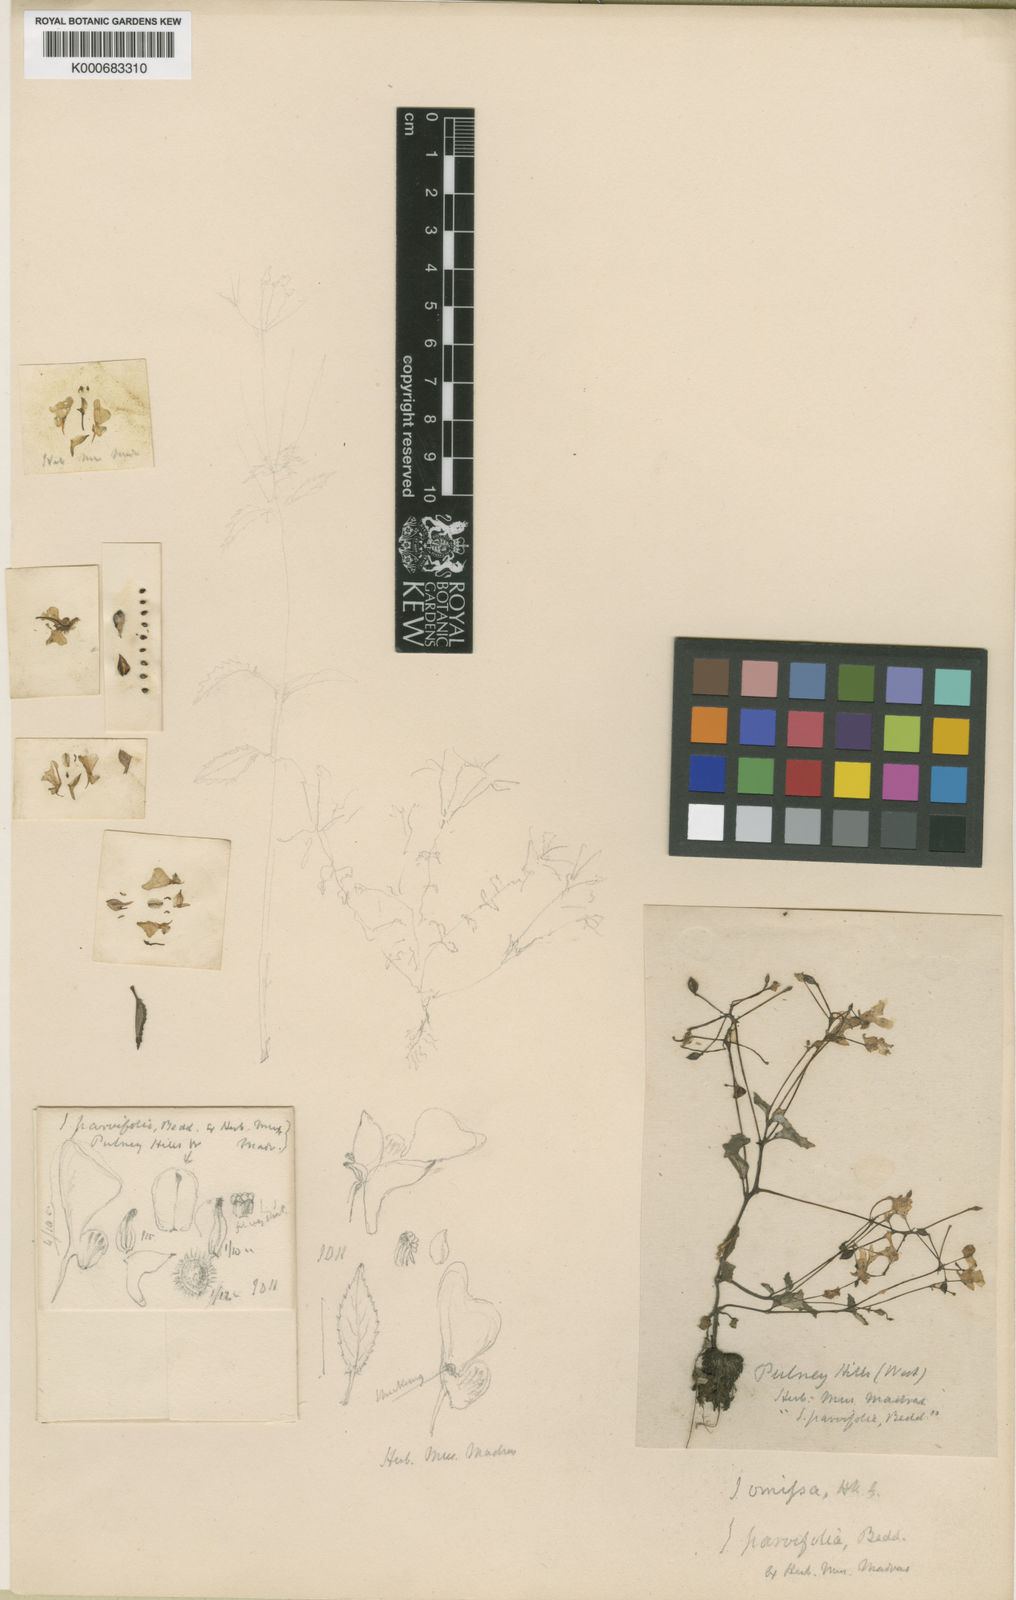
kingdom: Plantae
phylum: Tracheophyta
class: Magnoliopsida
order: Ericales
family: Balsaminaceae
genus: Impatiens
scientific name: Impatiens omissa
